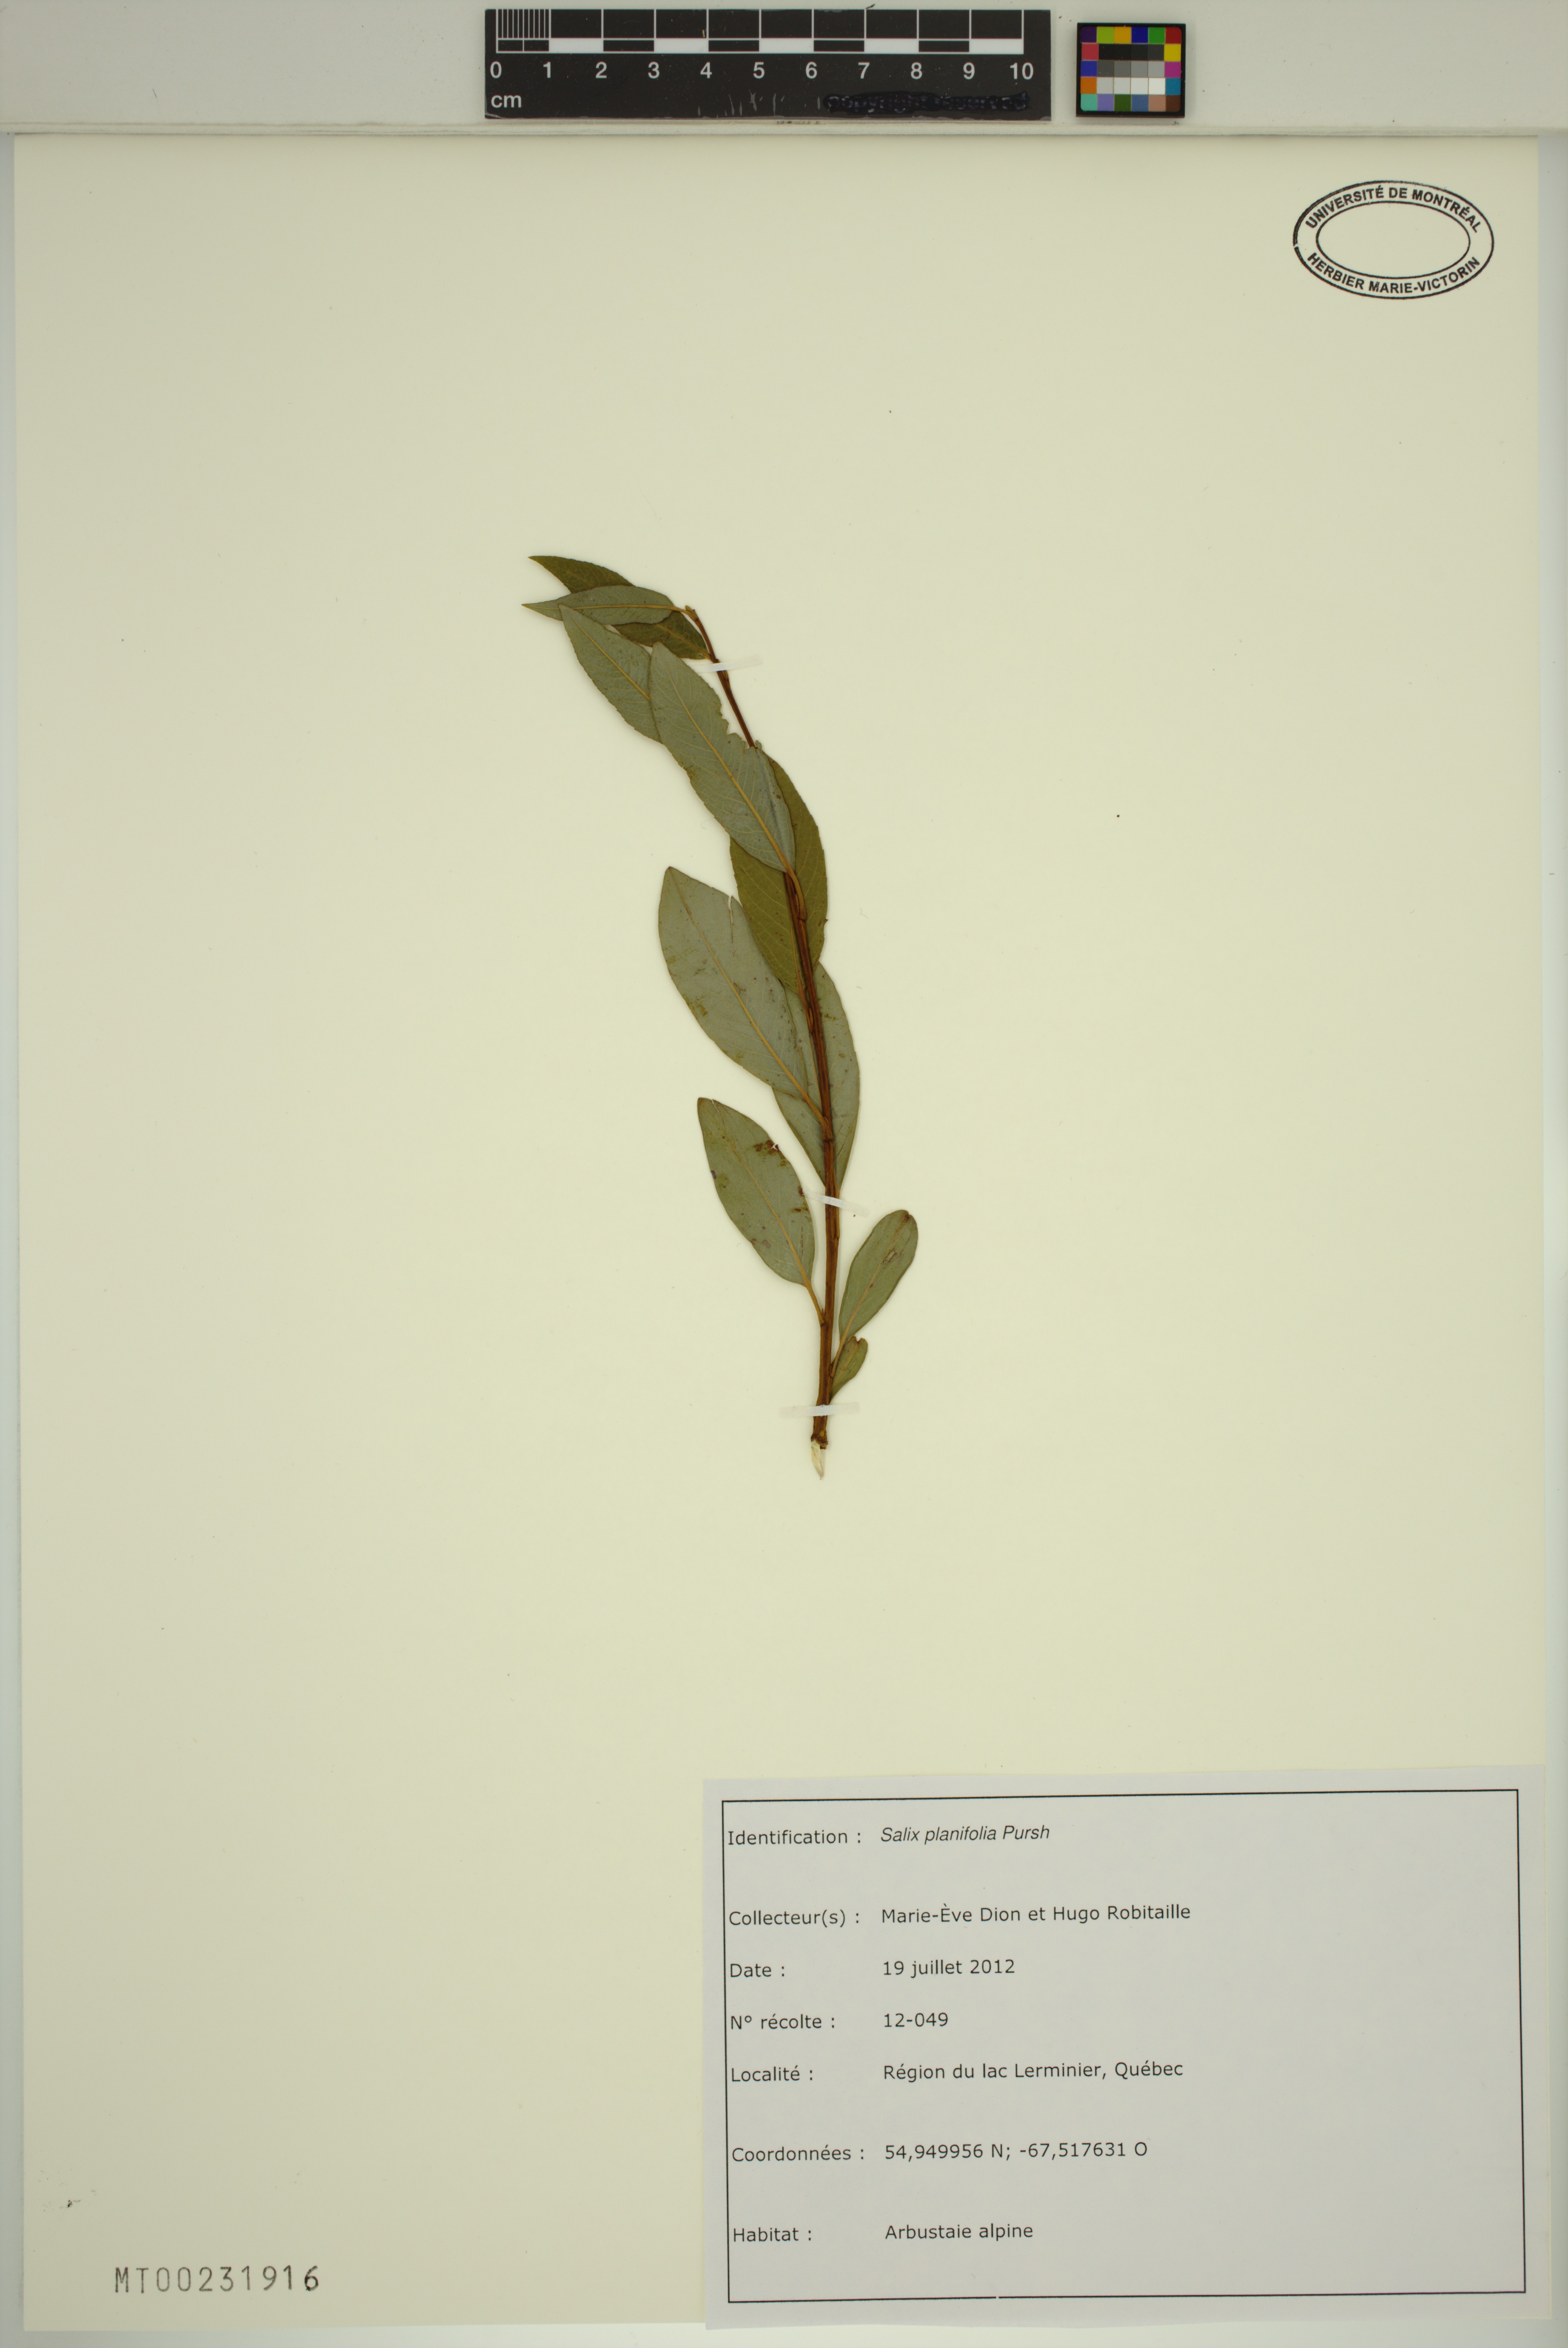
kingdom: Plantae
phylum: Tracheophyta
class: Magnoliopsida
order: Malpighiales
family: Salicaceae
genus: Salix
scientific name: Salix planifolia
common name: Mountain willow
